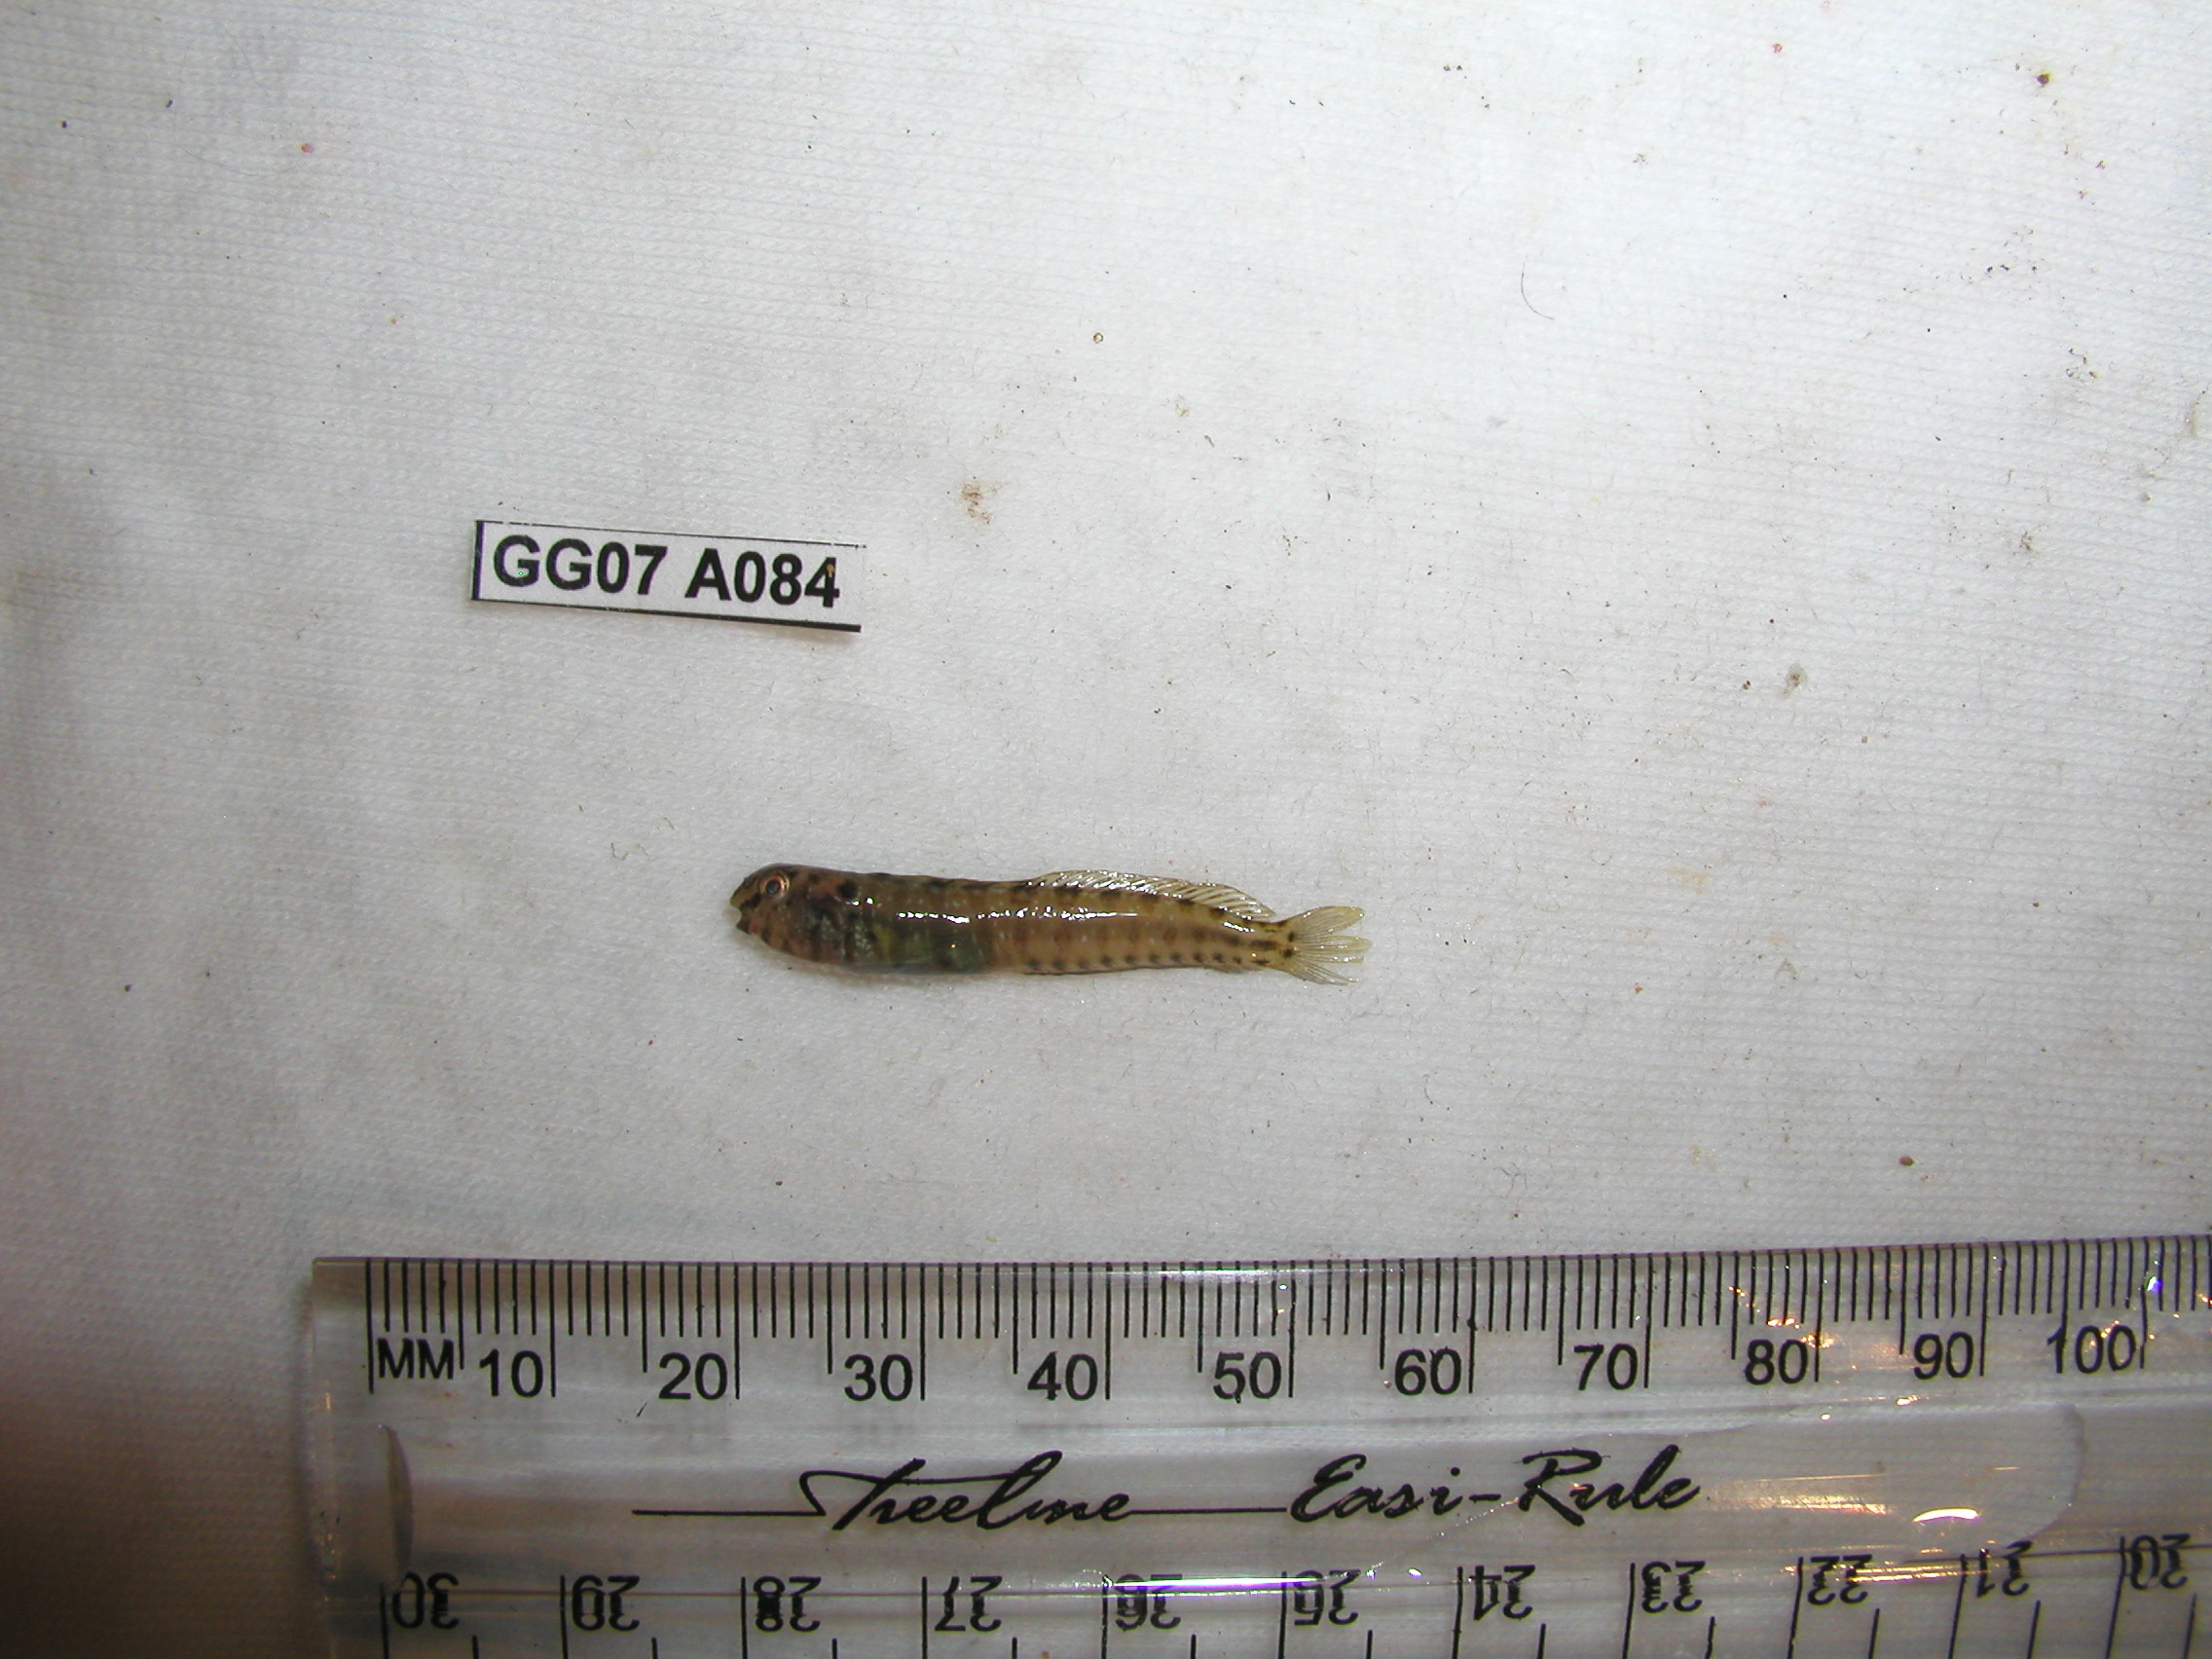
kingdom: Animalia
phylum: Chordata
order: Perciformes
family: Blenniidae
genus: Omobranchus
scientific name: Omobranchus banditus
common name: Bandit blenny
